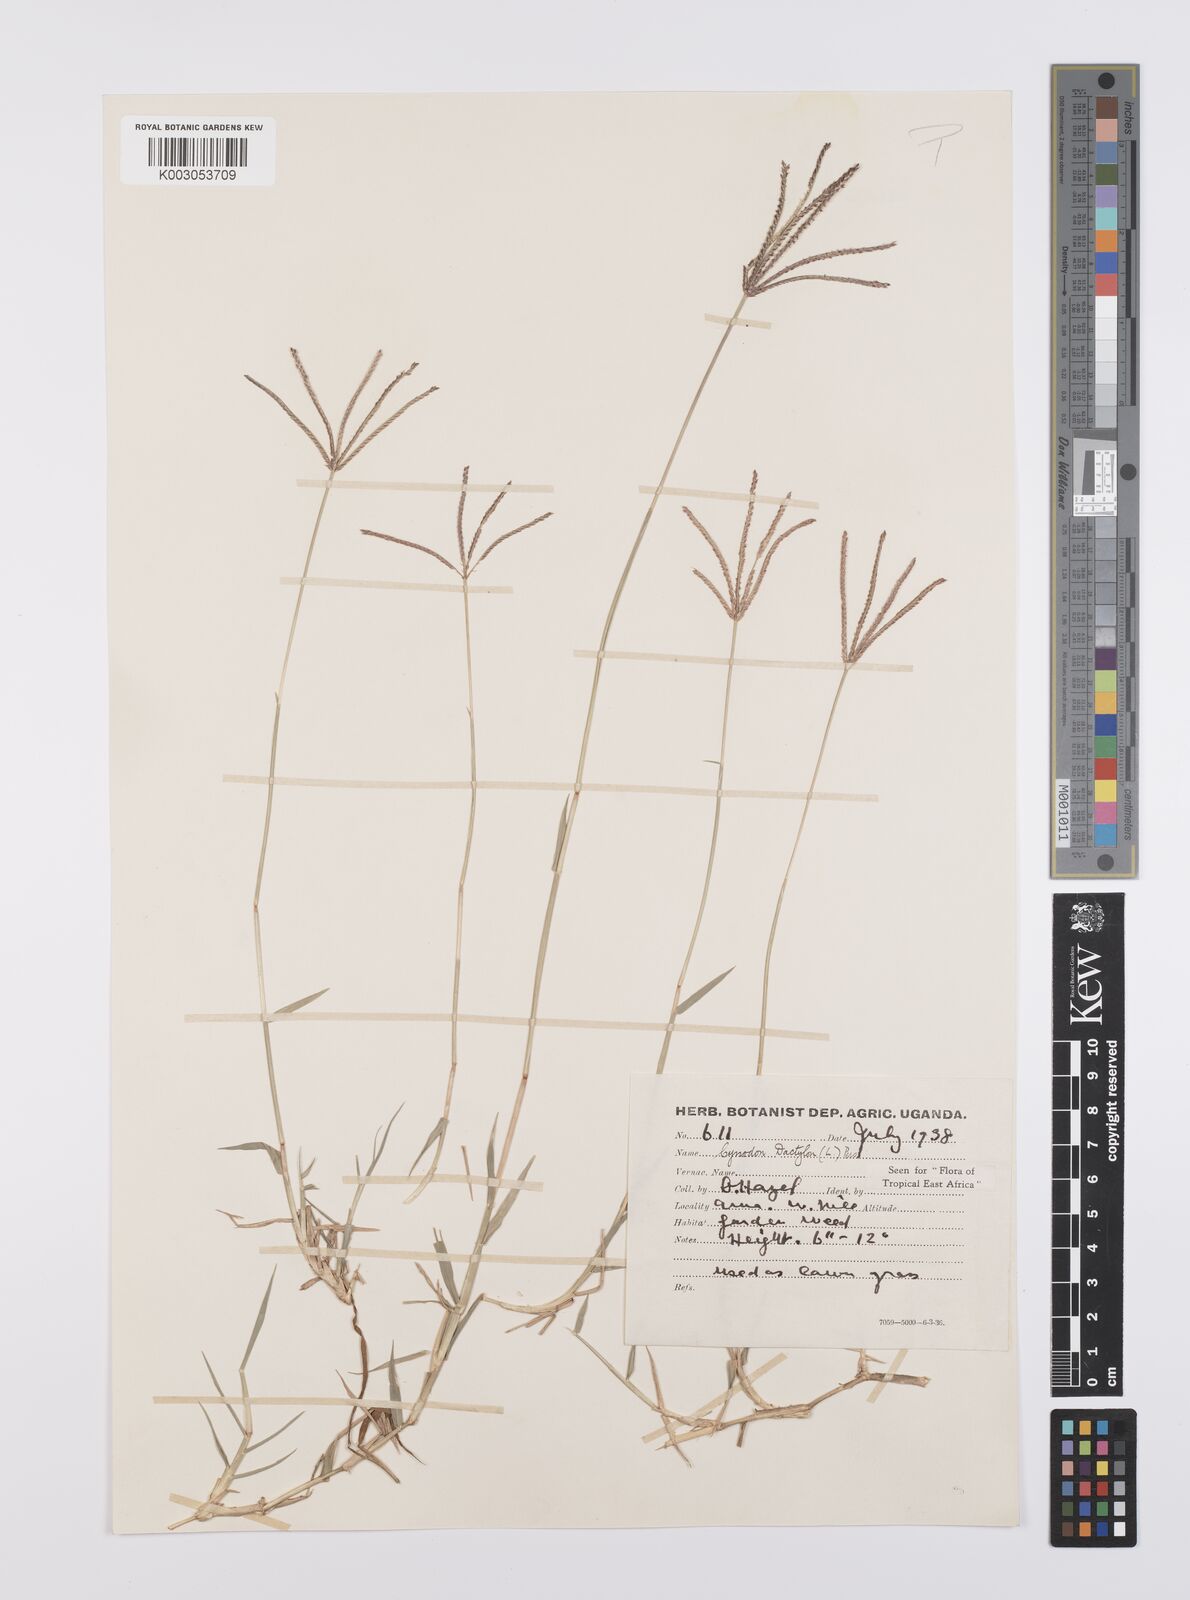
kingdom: Plantae
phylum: Tracheophyta
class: Liliopsida
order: Poales
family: Poaceae
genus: Cynodon
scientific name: Cynodon dactylon
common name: Bermuda grass
